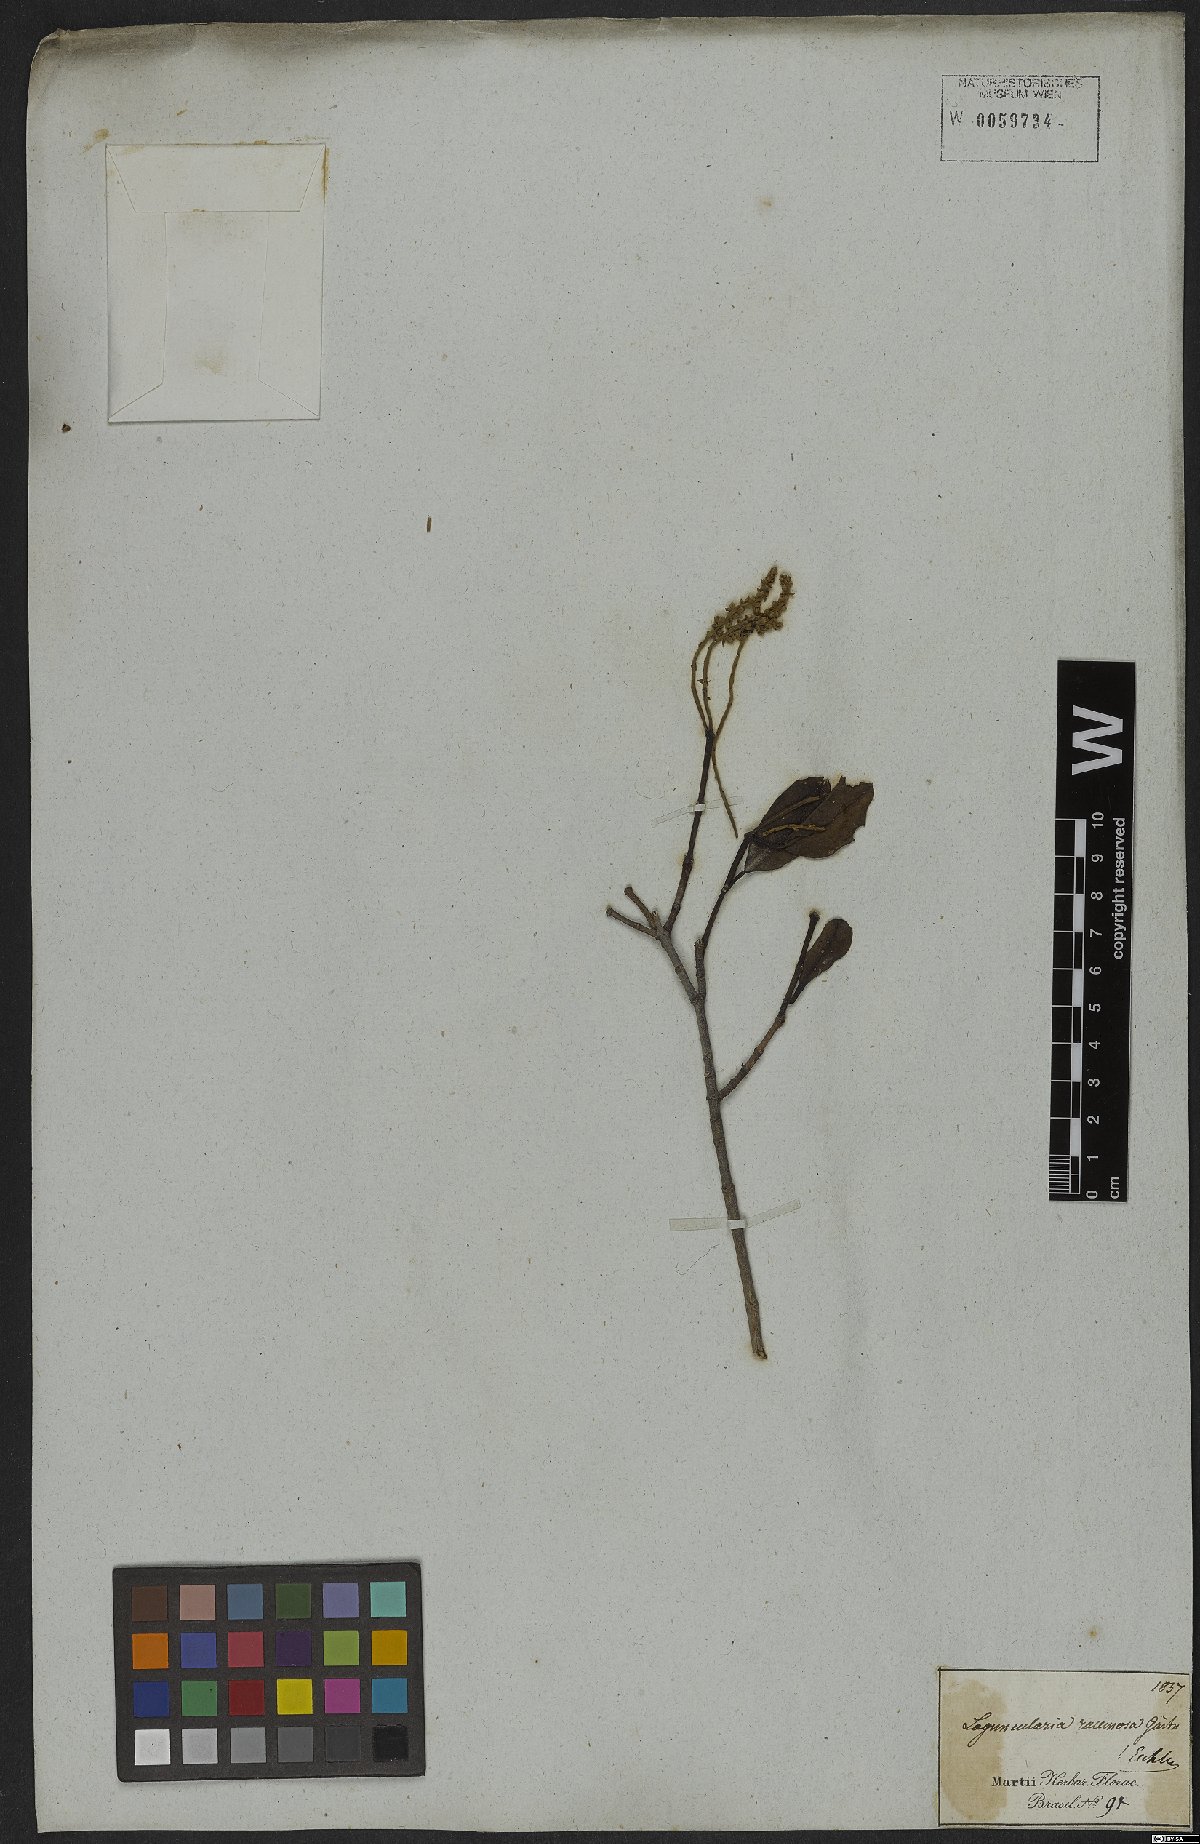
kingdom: Plantae
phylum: Tracheophyta
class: Magnoliopsida
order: Myrtales
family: Combretaceae
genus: Laguncularia
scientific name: Laguncularia racemosa
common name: White mangrove
